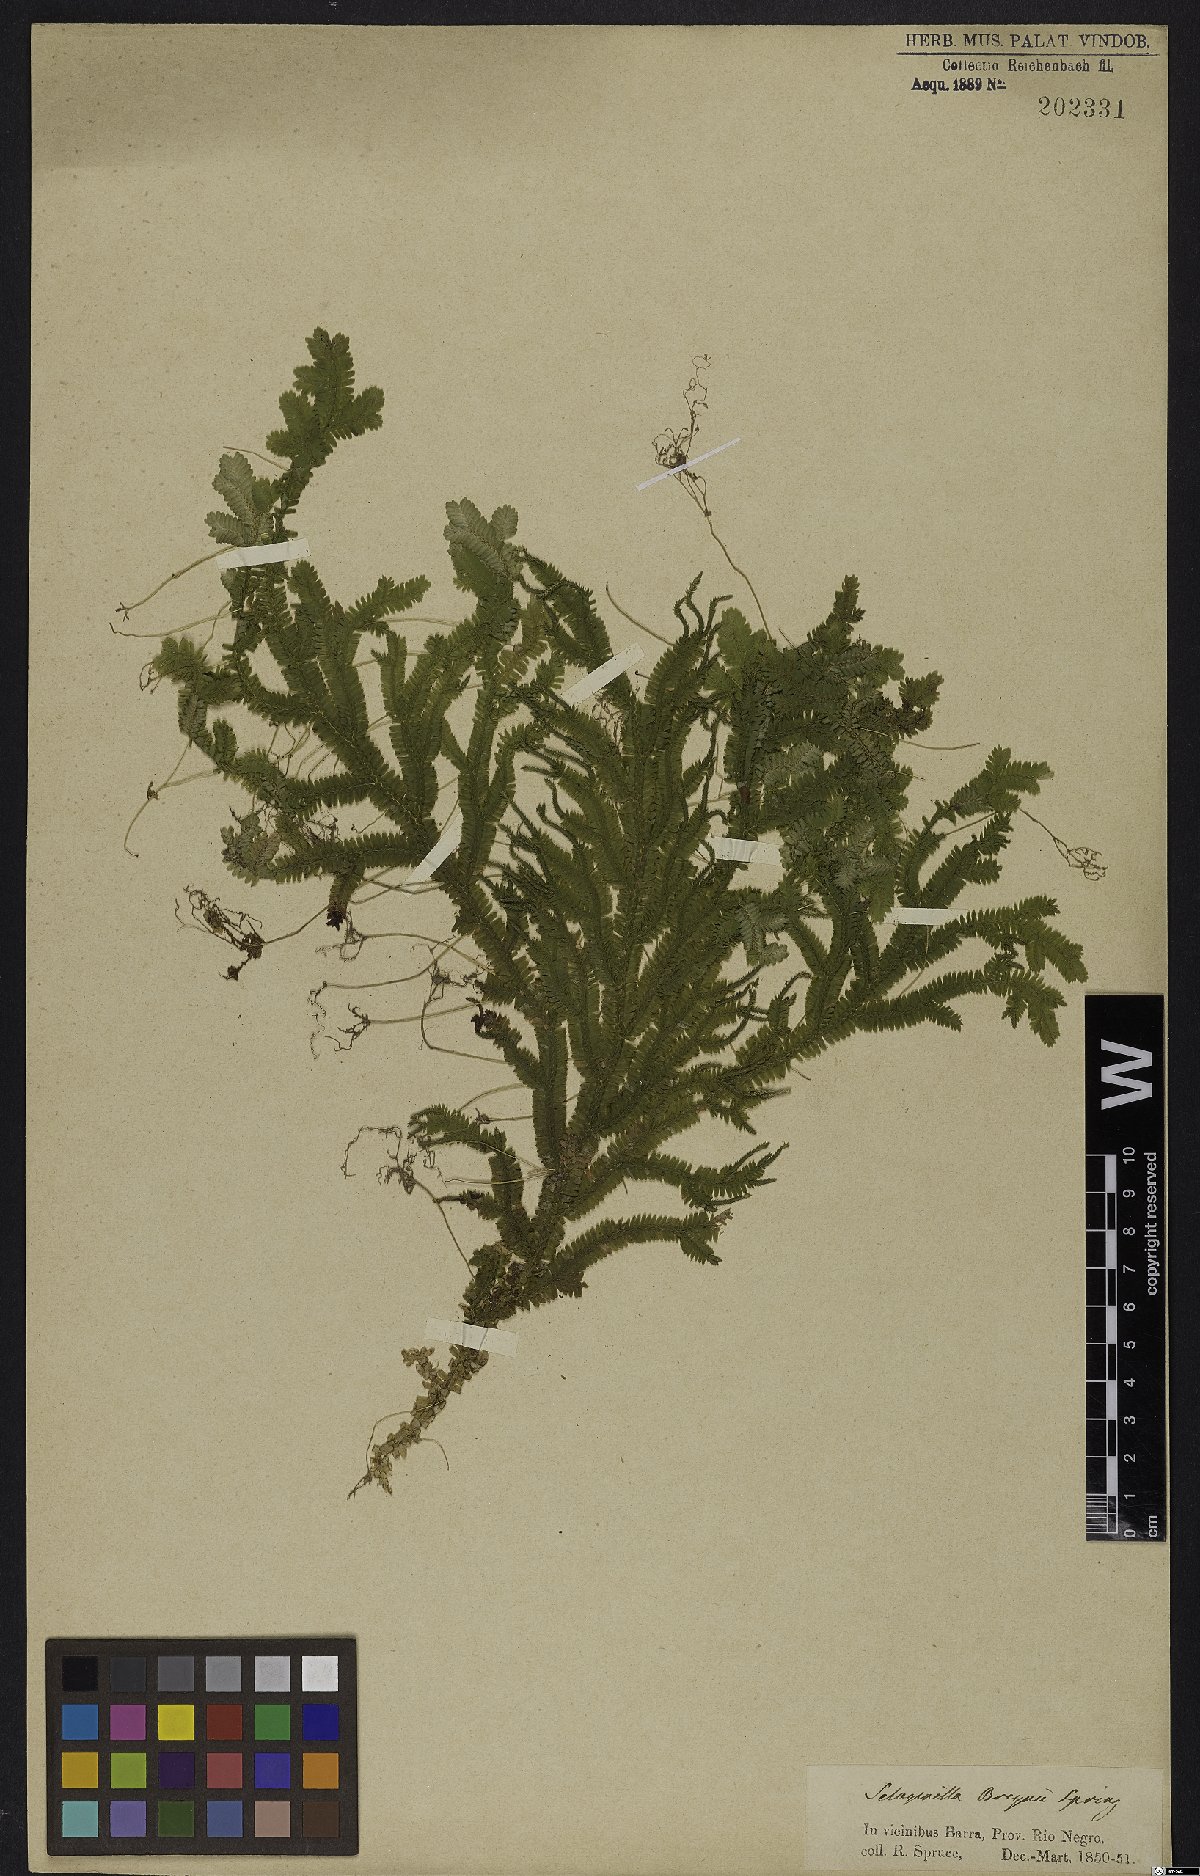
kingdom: Plantae
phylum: Tracheophyta
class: Lycopodiopsida
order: Selaginellales
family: Selaginellaceae
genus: Selaginella
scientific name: Selaginella breynii
